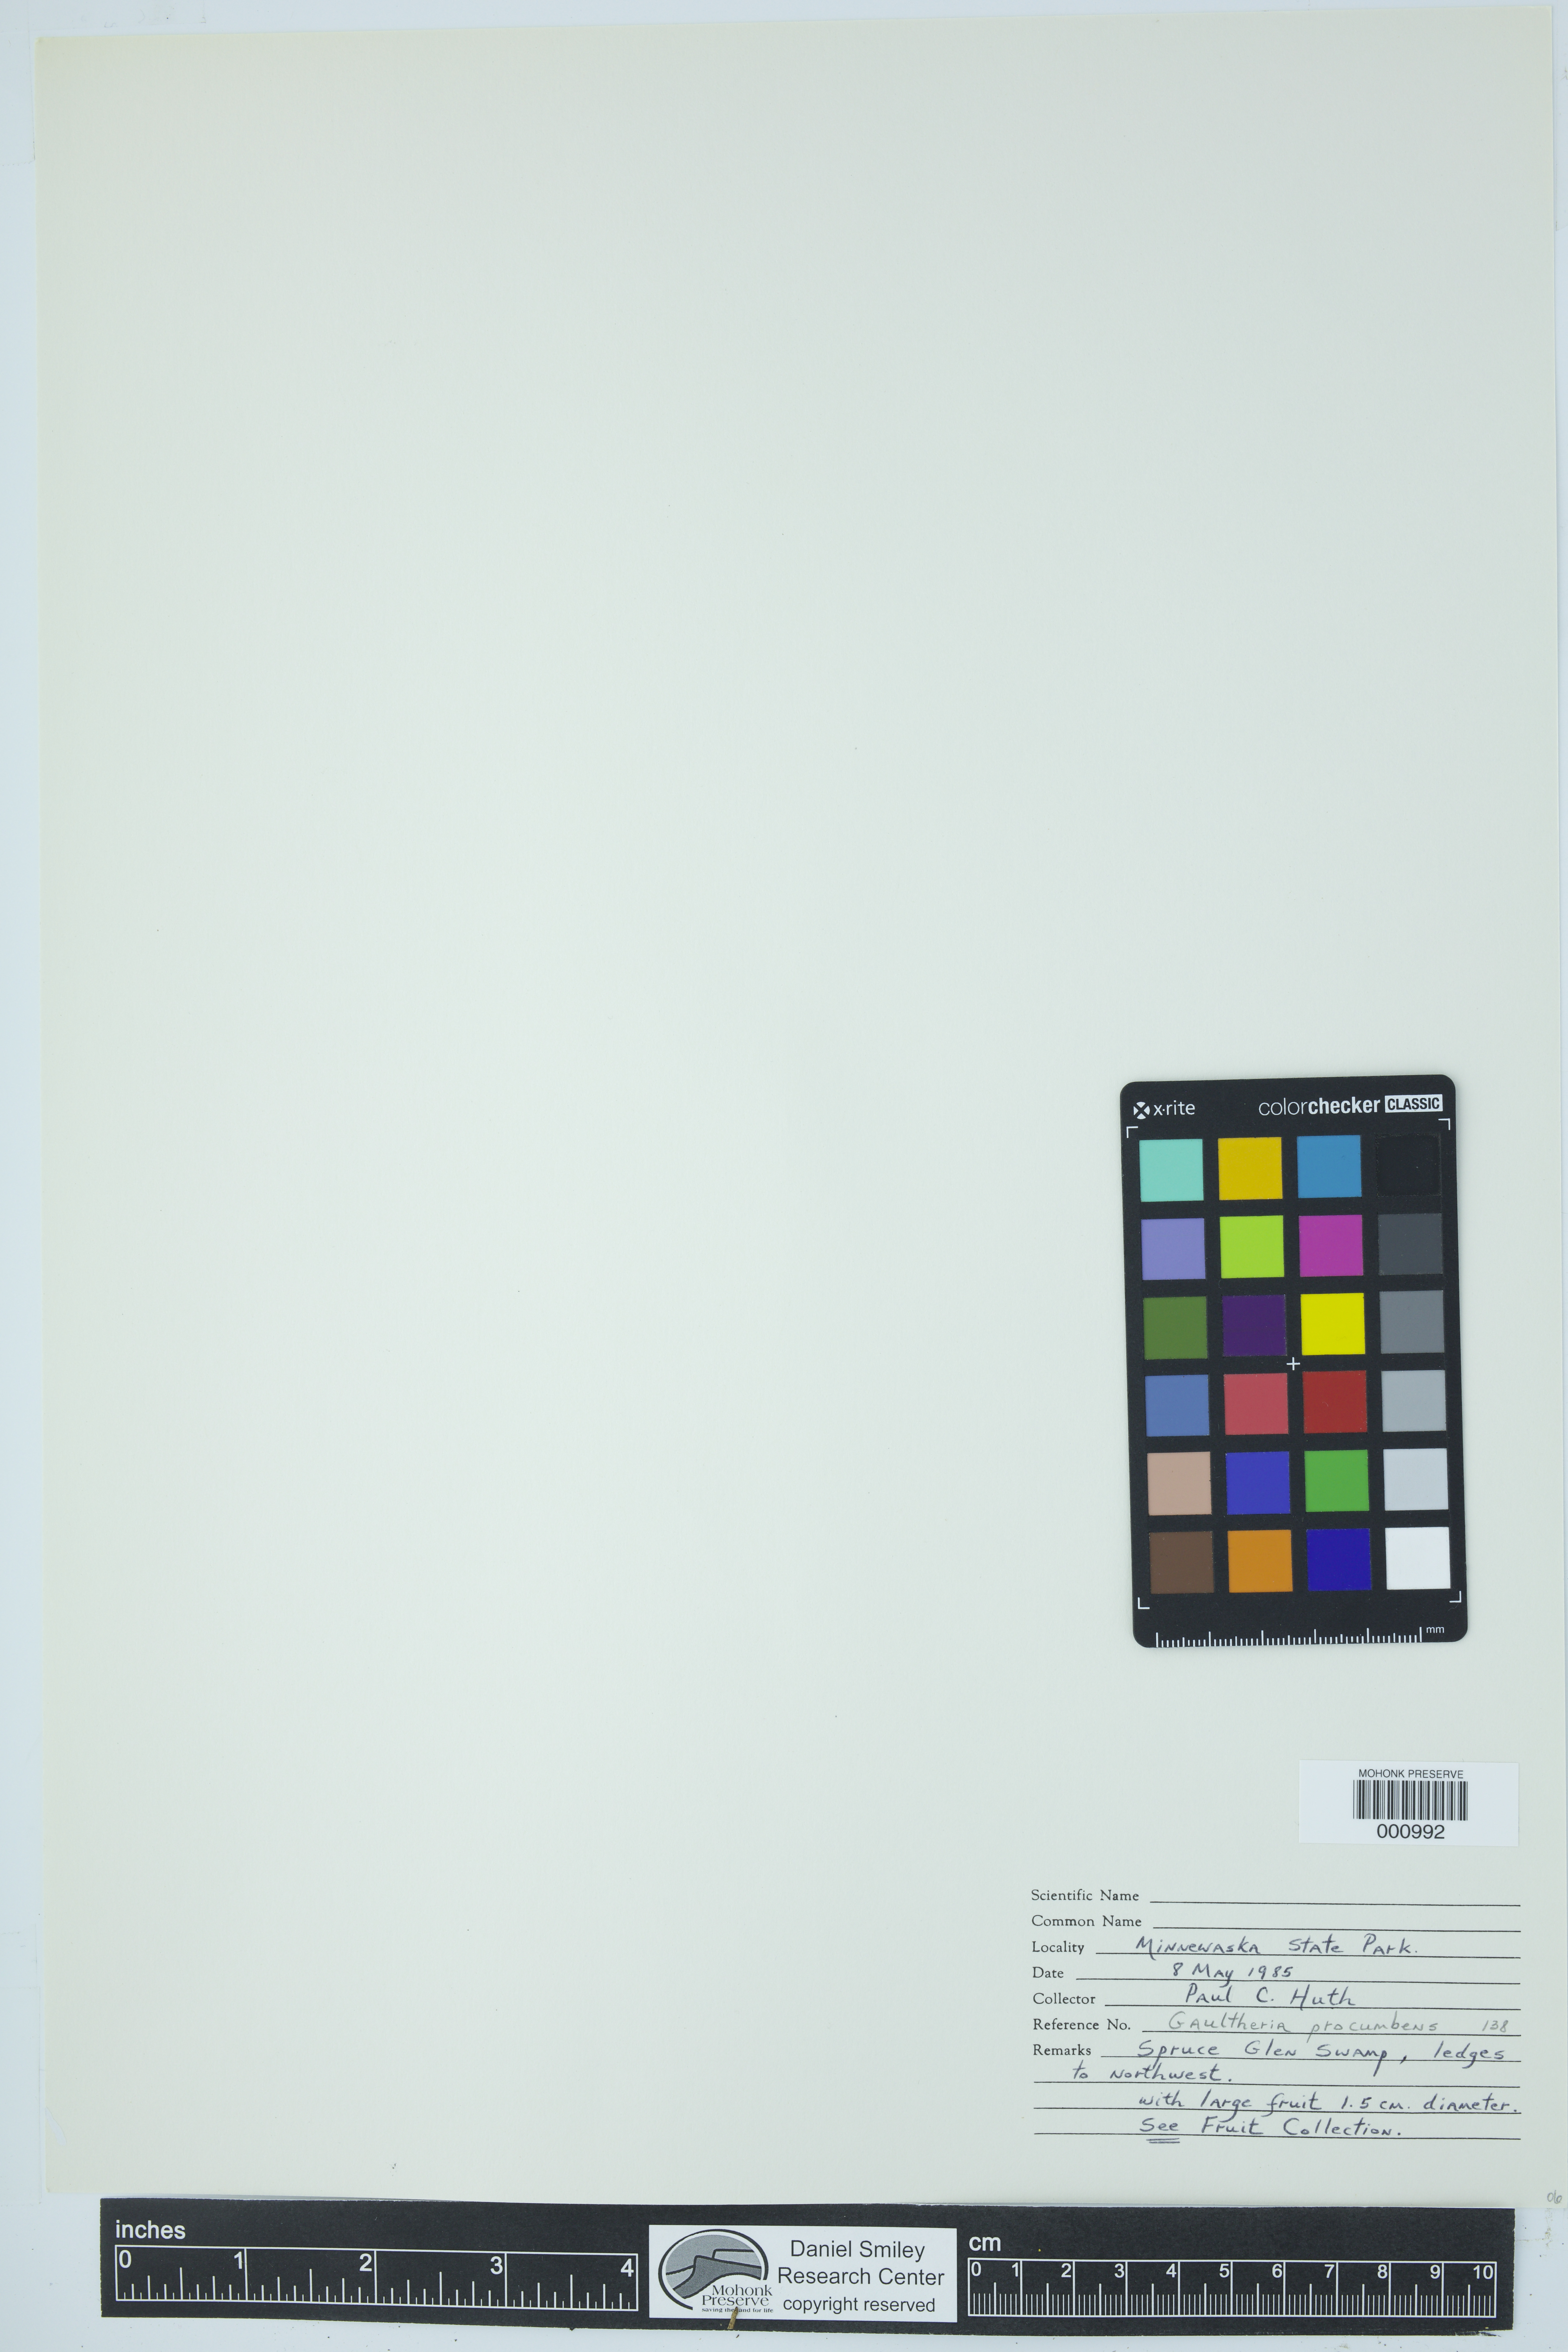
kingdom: Plantae
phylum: Tracheophyta
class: Magnoliopsida
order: Ericales
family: Ericaceae
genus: Gaultheria
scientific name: Gaultheria procumbens
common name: Checkerberry
